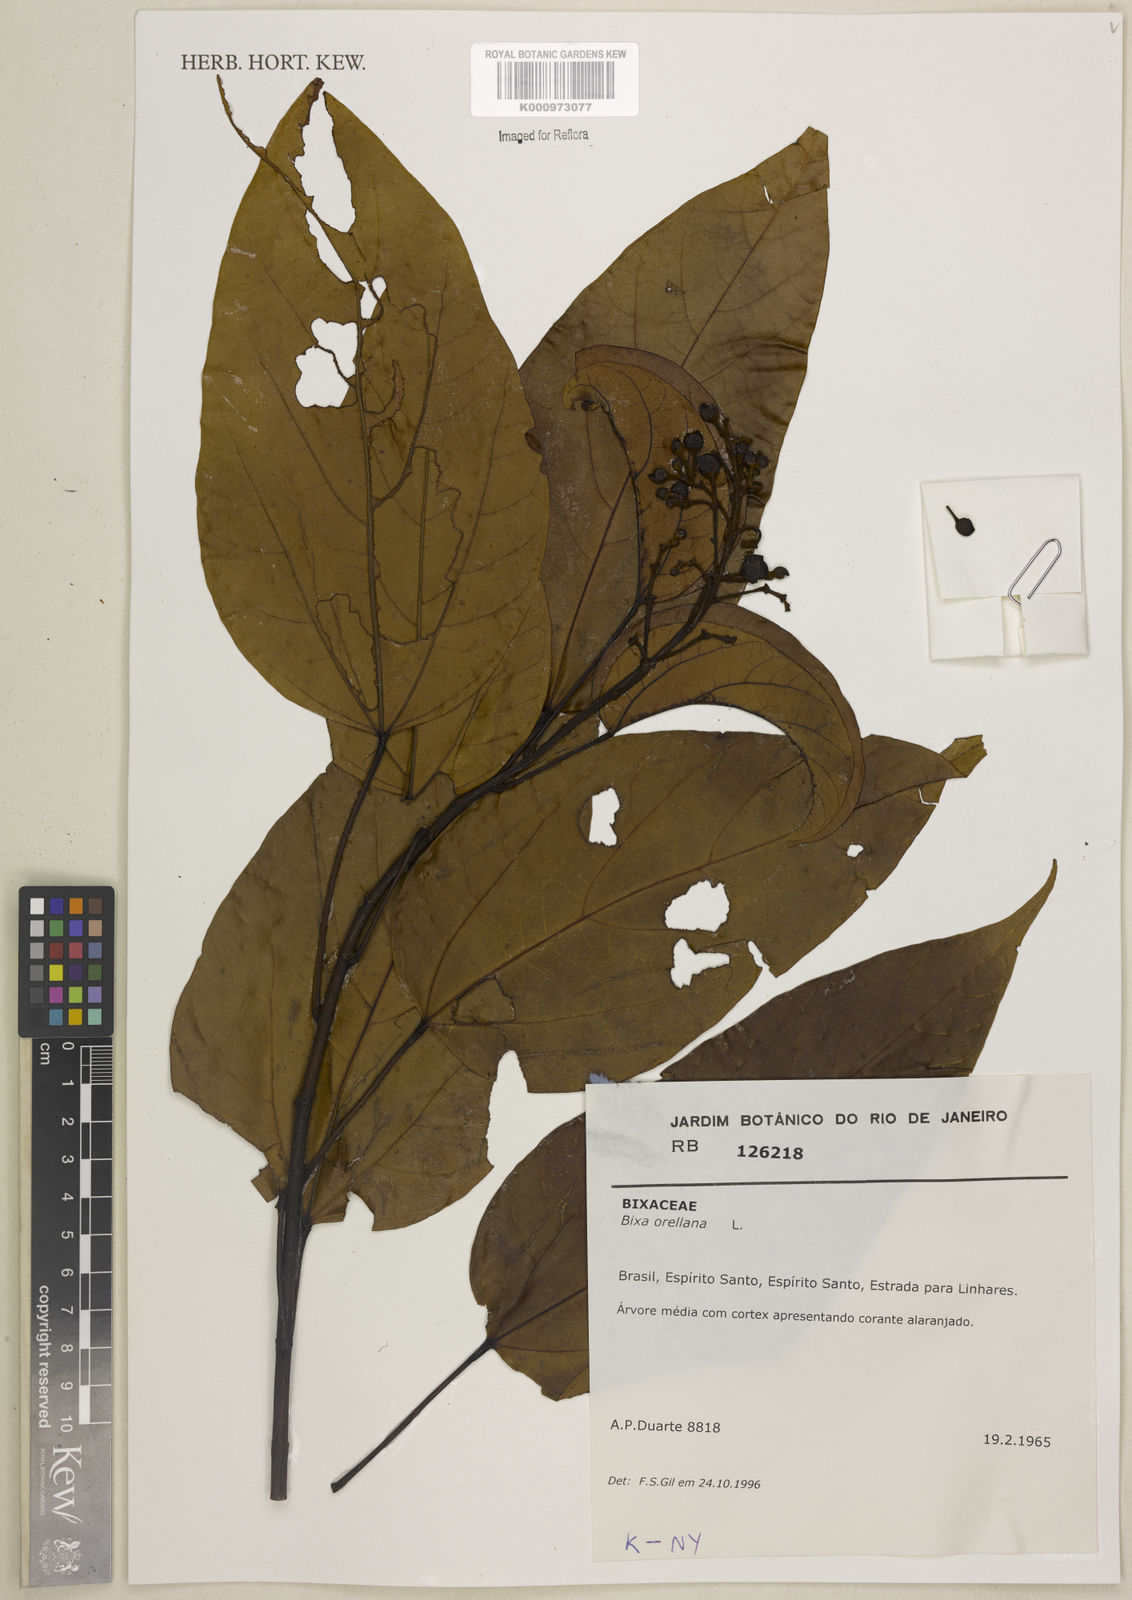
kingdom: Plantae
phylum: Tracheophyta
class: Magnoliopsida
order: Malvales
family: Bixaceae
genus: Bixa
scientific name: Bixa orellana
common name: Lipsticktree
